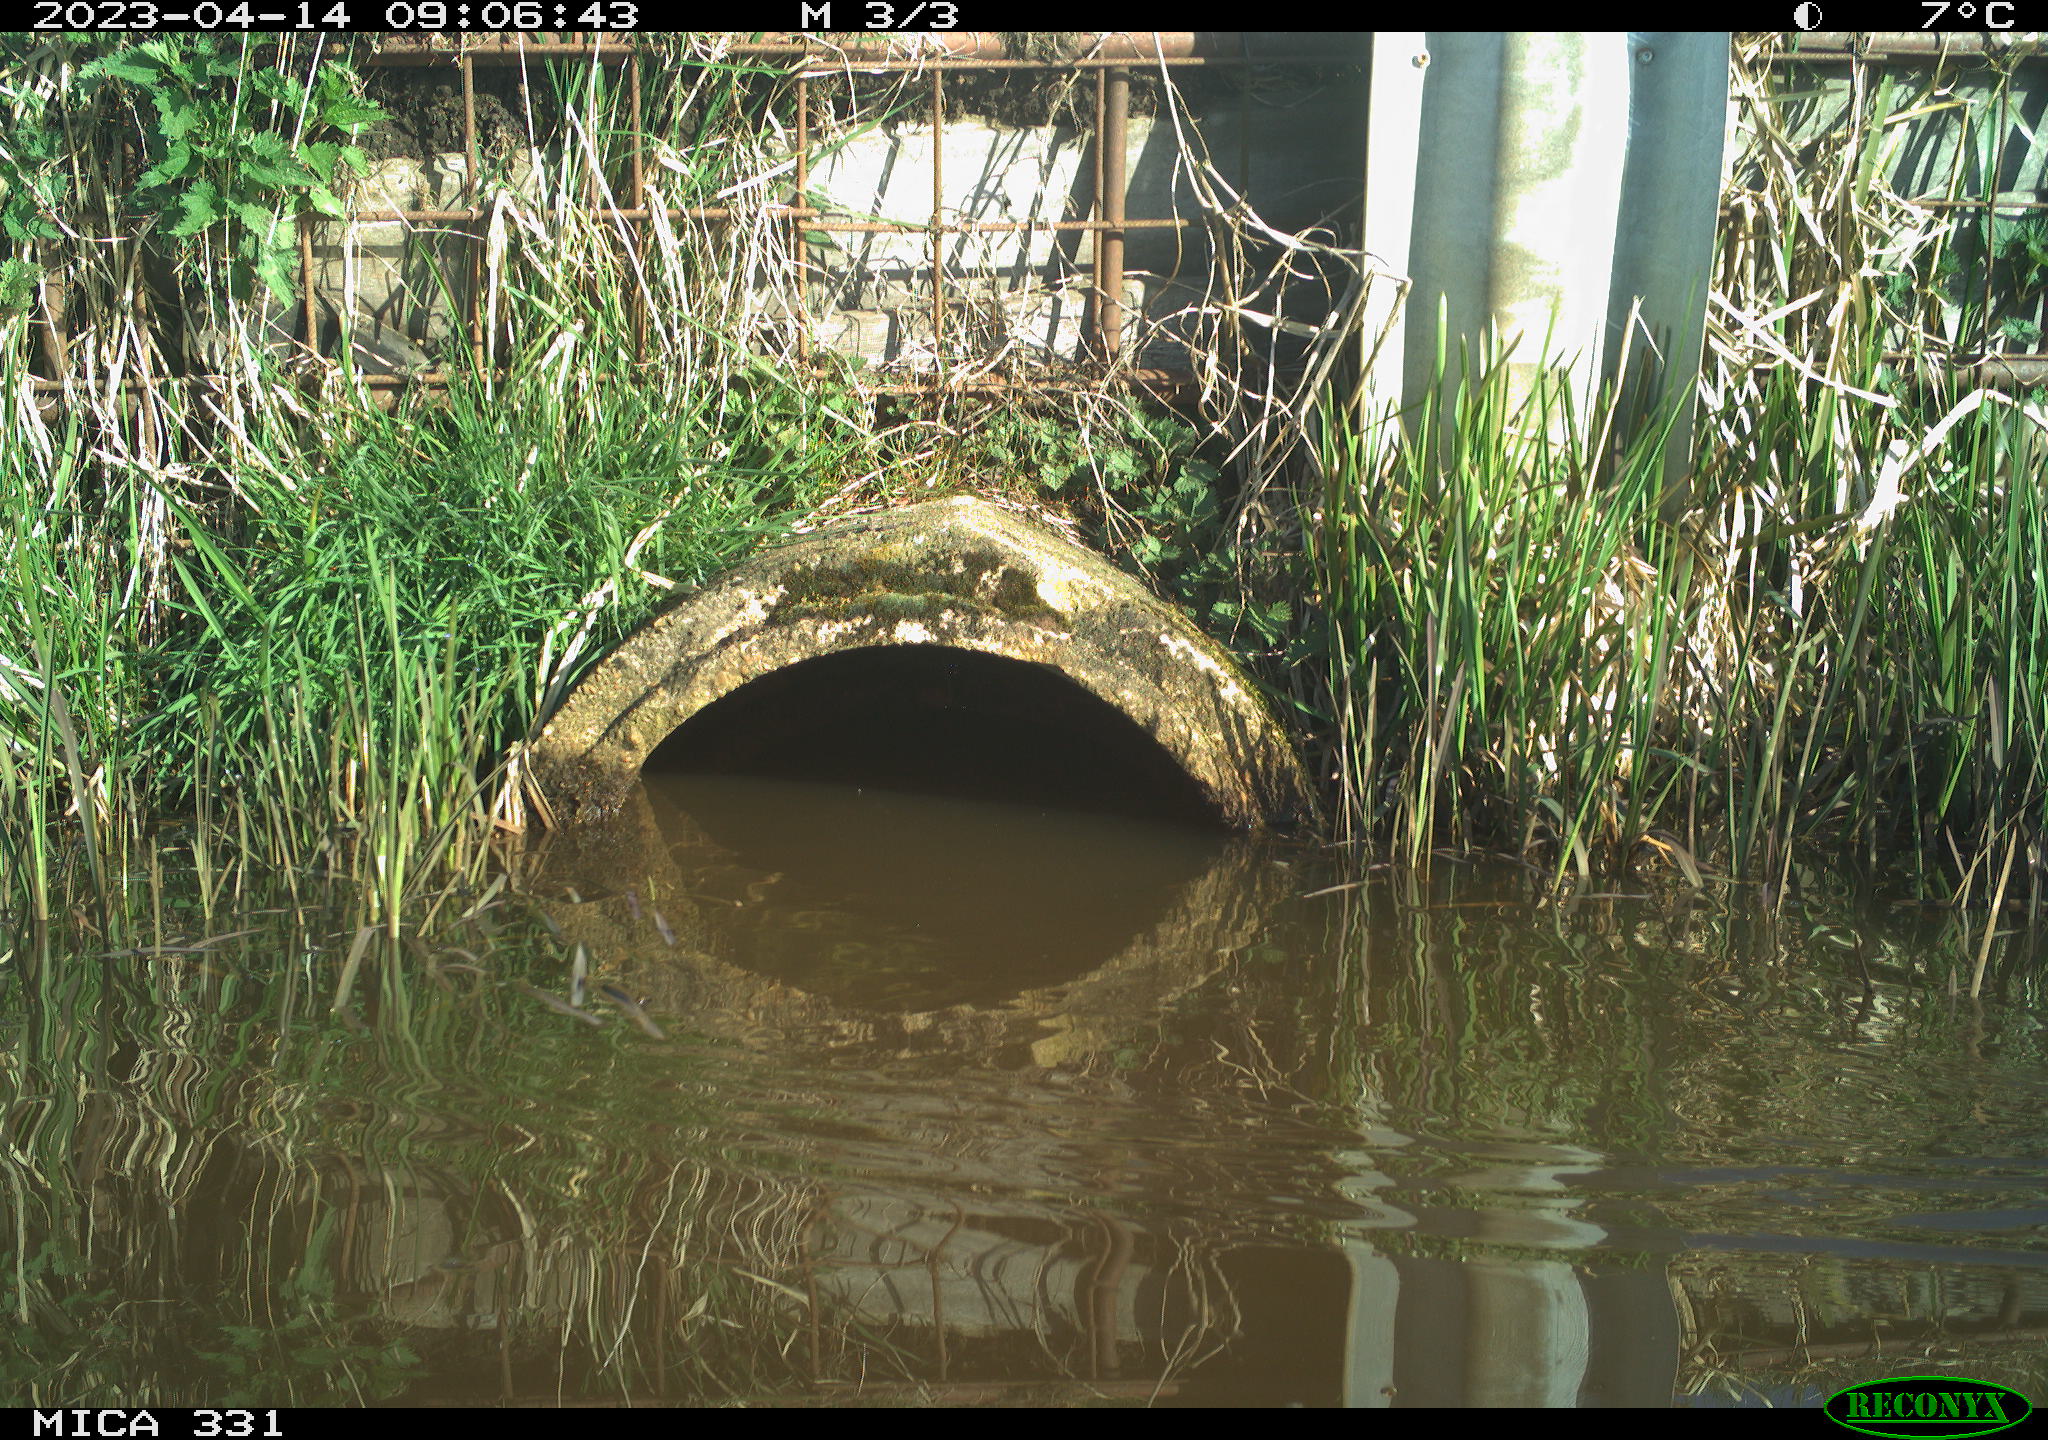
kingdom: Animalia
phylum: Chordata
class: Aves
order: Gruiformes
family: Rallidae
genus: Fulica
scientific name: Fulica atra
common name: Eurasian coot
